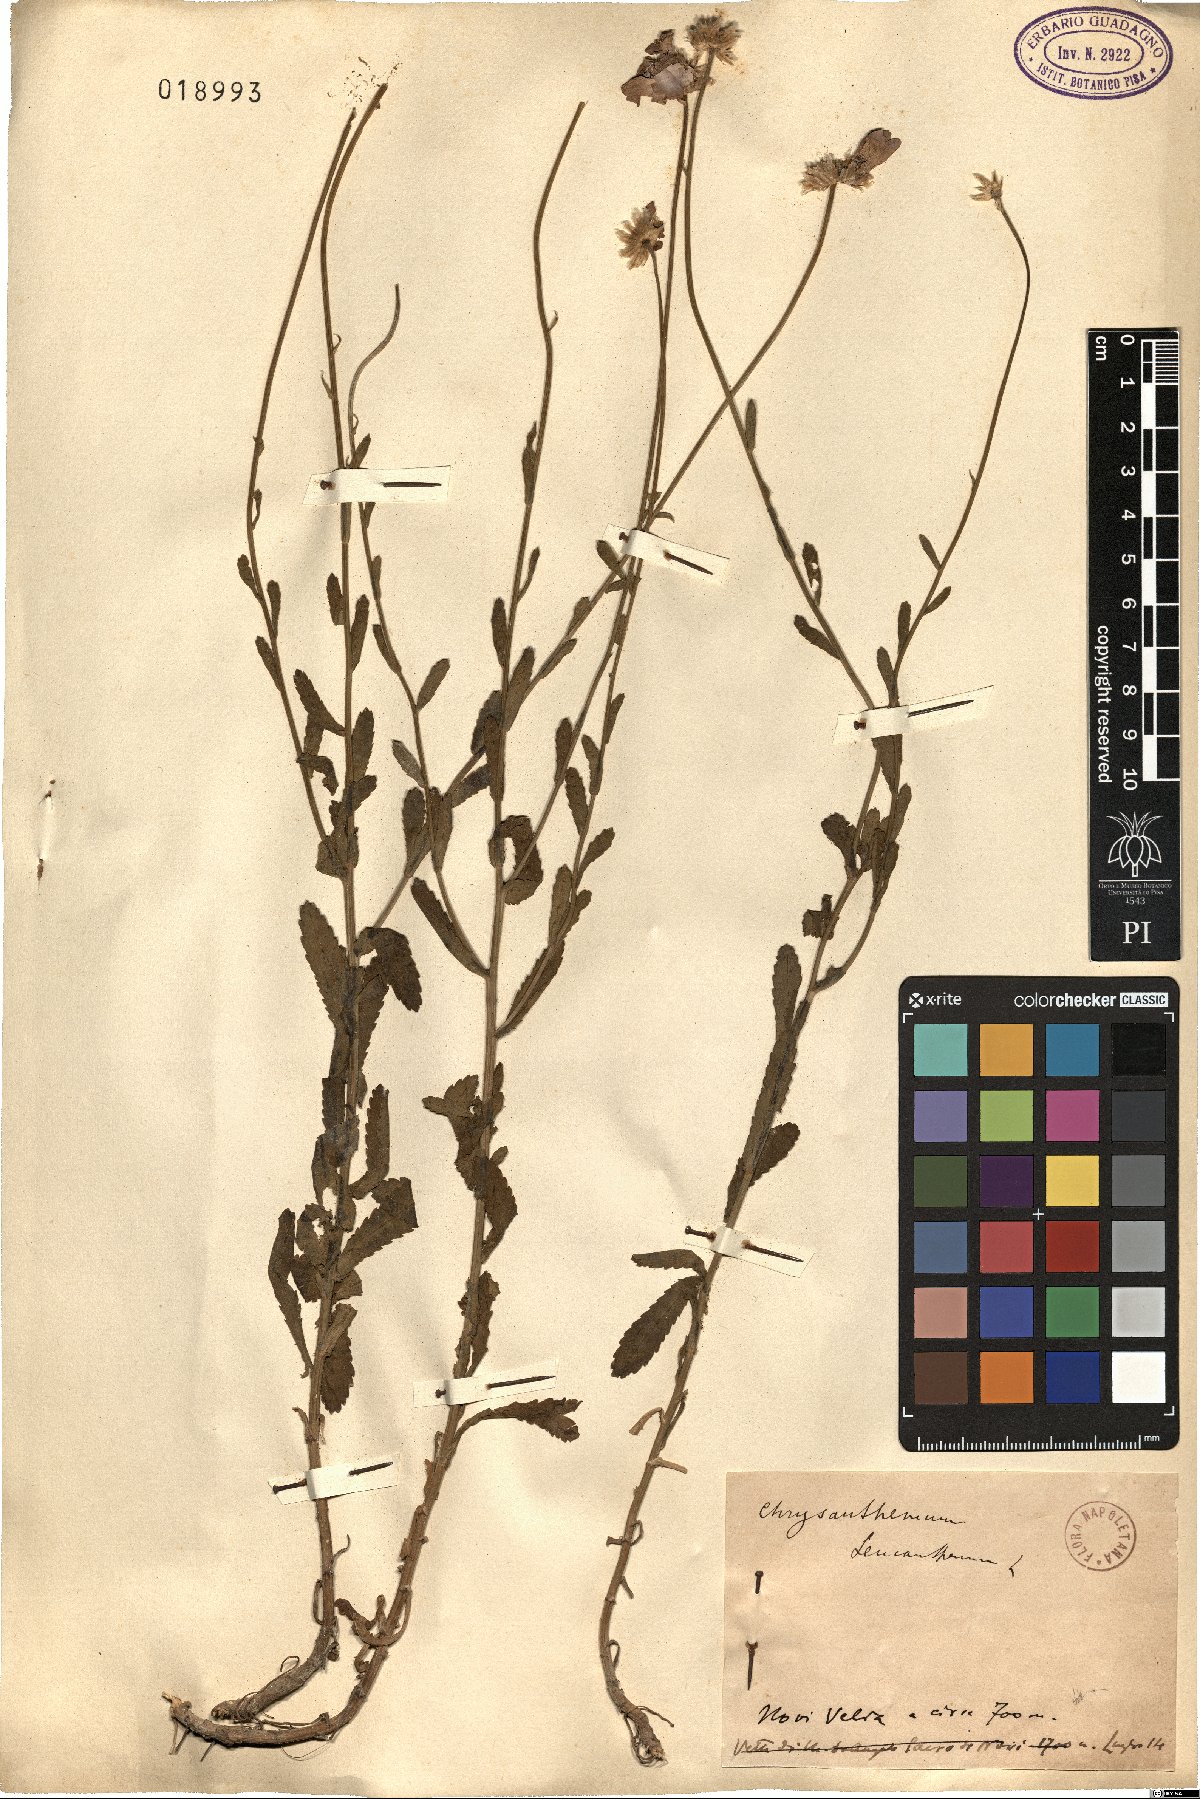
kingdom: Plantae
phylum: Tracheophyta
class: Magnoliopsida
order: Asterales
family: Asteraceae
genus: Leucanthemum
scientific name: Leucanthemum vulgare
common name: Oxeye daisy
